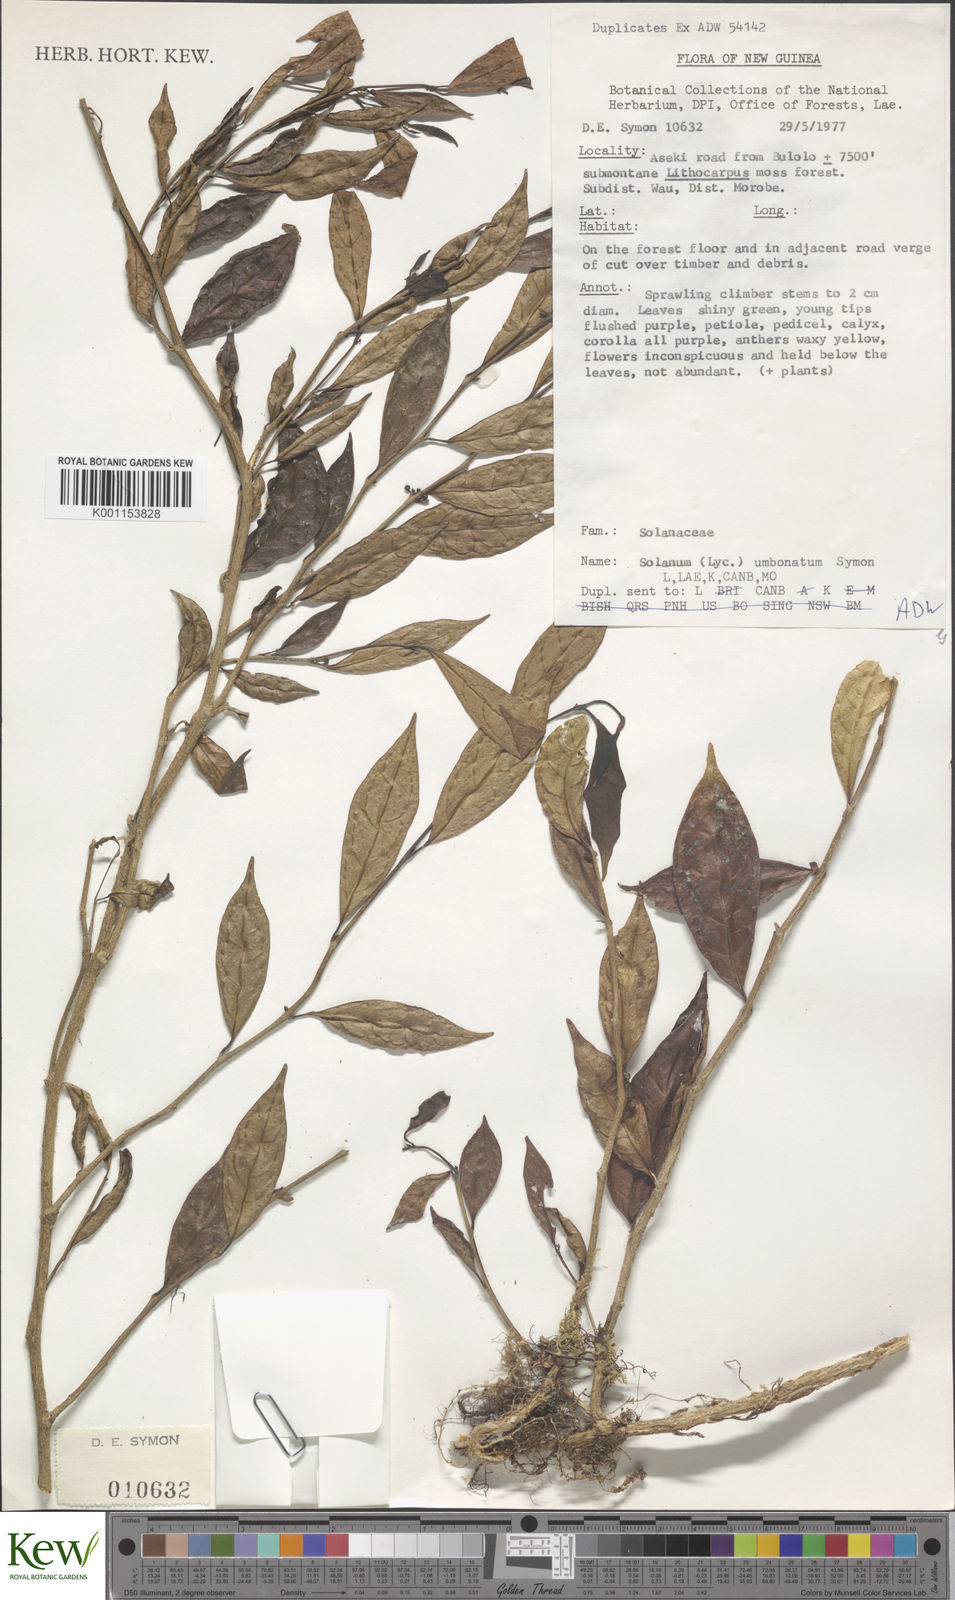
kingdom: Plantae
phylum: Tracheophyta
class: Magnoliopsida
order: Solanales
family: Solanaceae
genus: Lycianthes
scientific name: Lycianthes bambusarum
